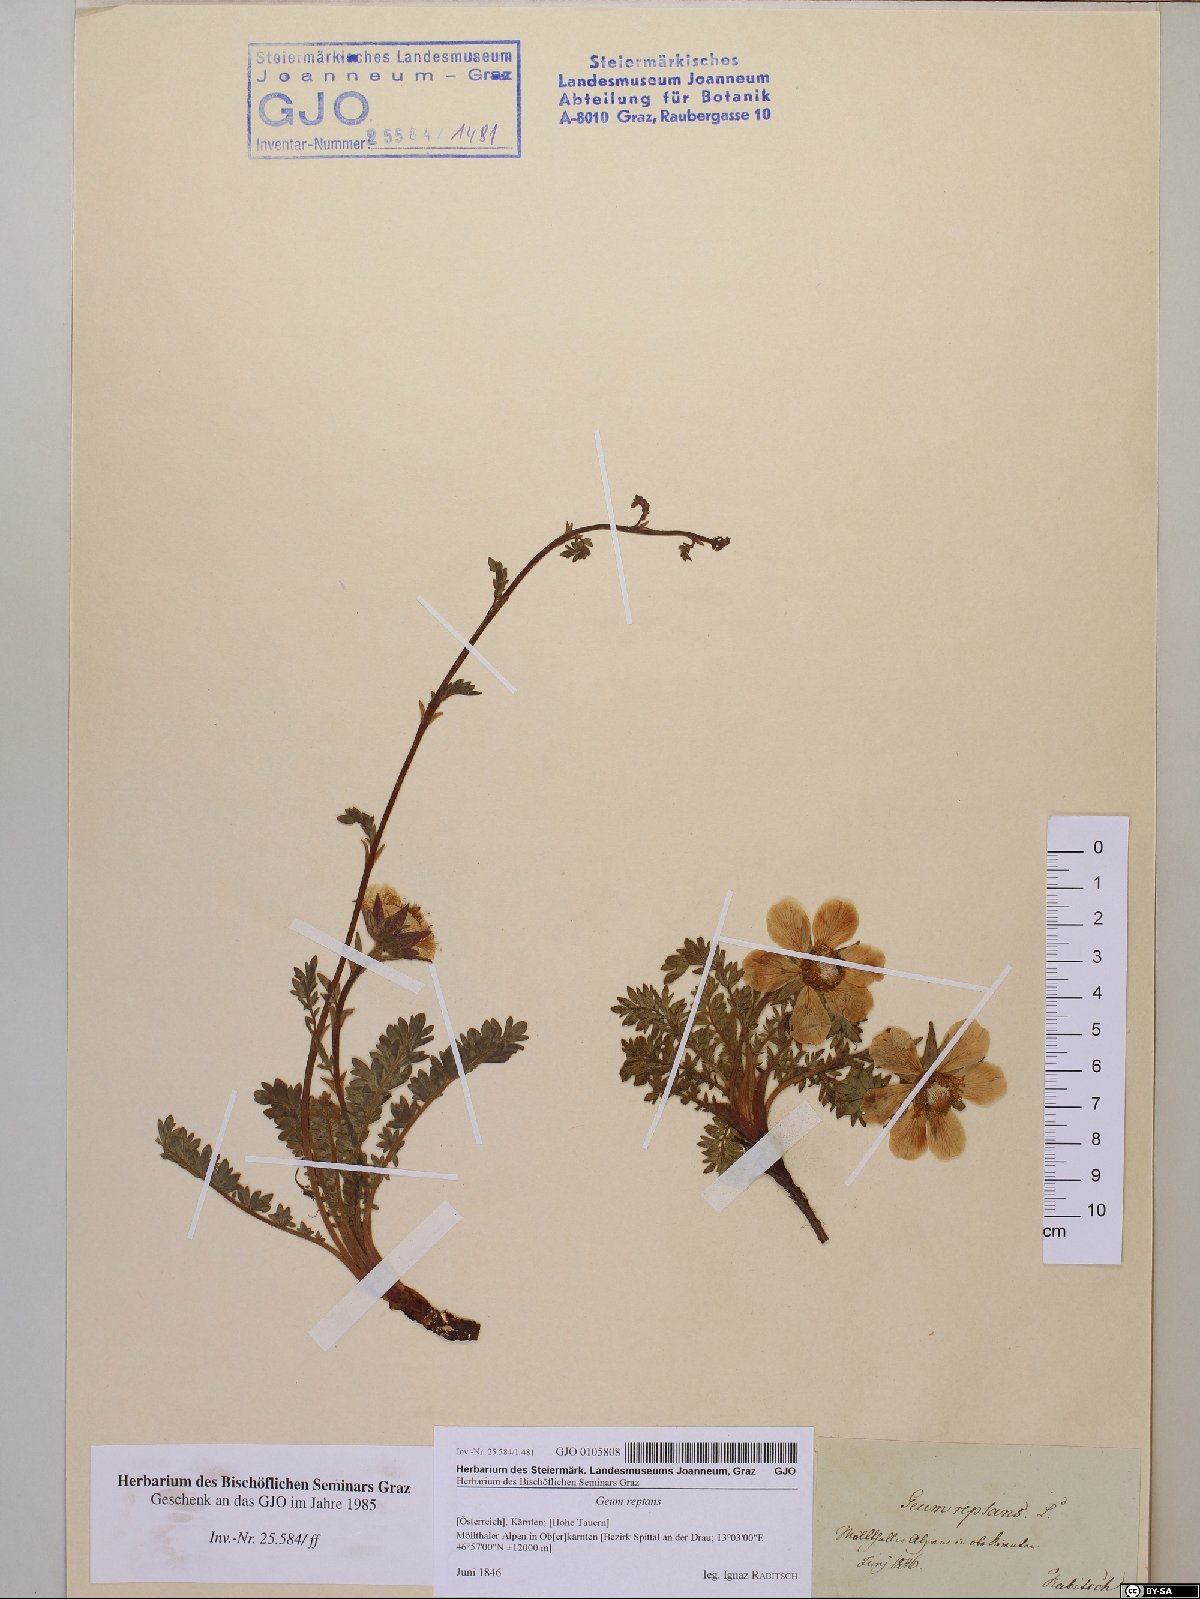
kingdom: Plantae
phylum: Tracheophyta
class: Magnoliopsida
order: Rosales
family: Rosaceae
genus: Geum
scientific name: Geum reptans
